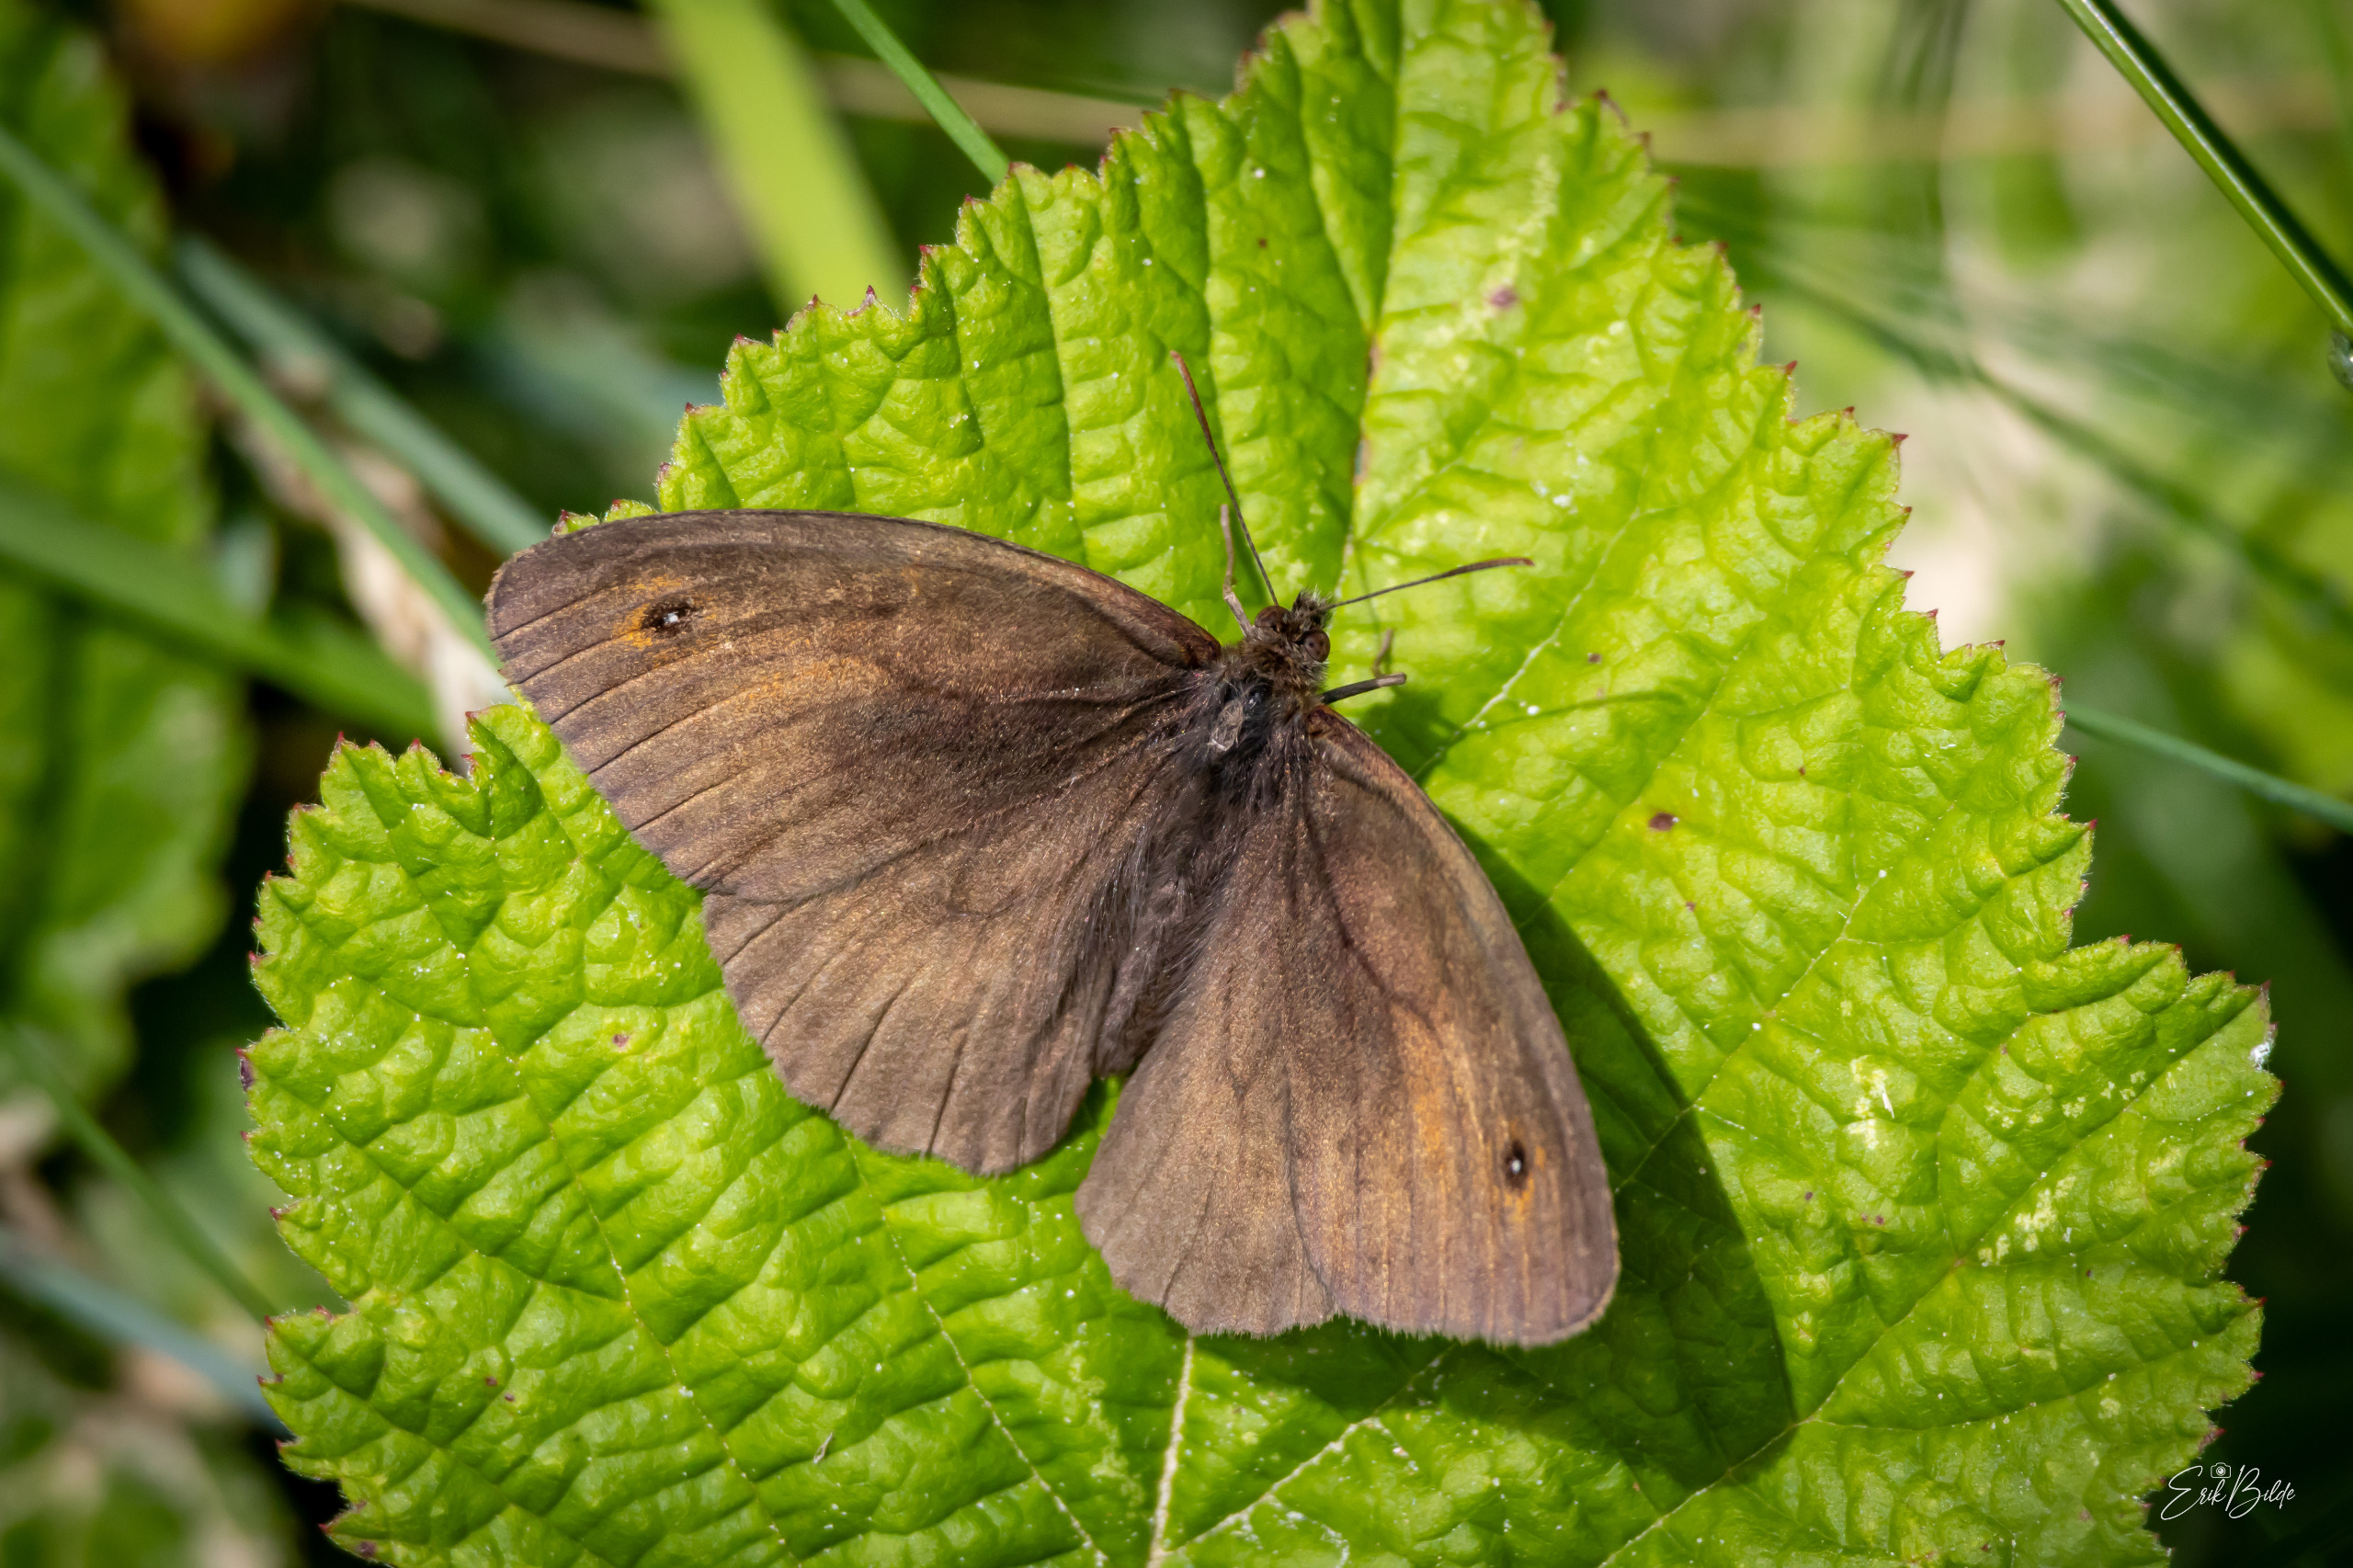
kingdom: Animalia
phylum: Arthropoda
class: Insecta
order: Lepidoptera
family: Nymphalidae
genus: Maniola
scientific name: Maniola jurtina
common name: Græsrandøje
